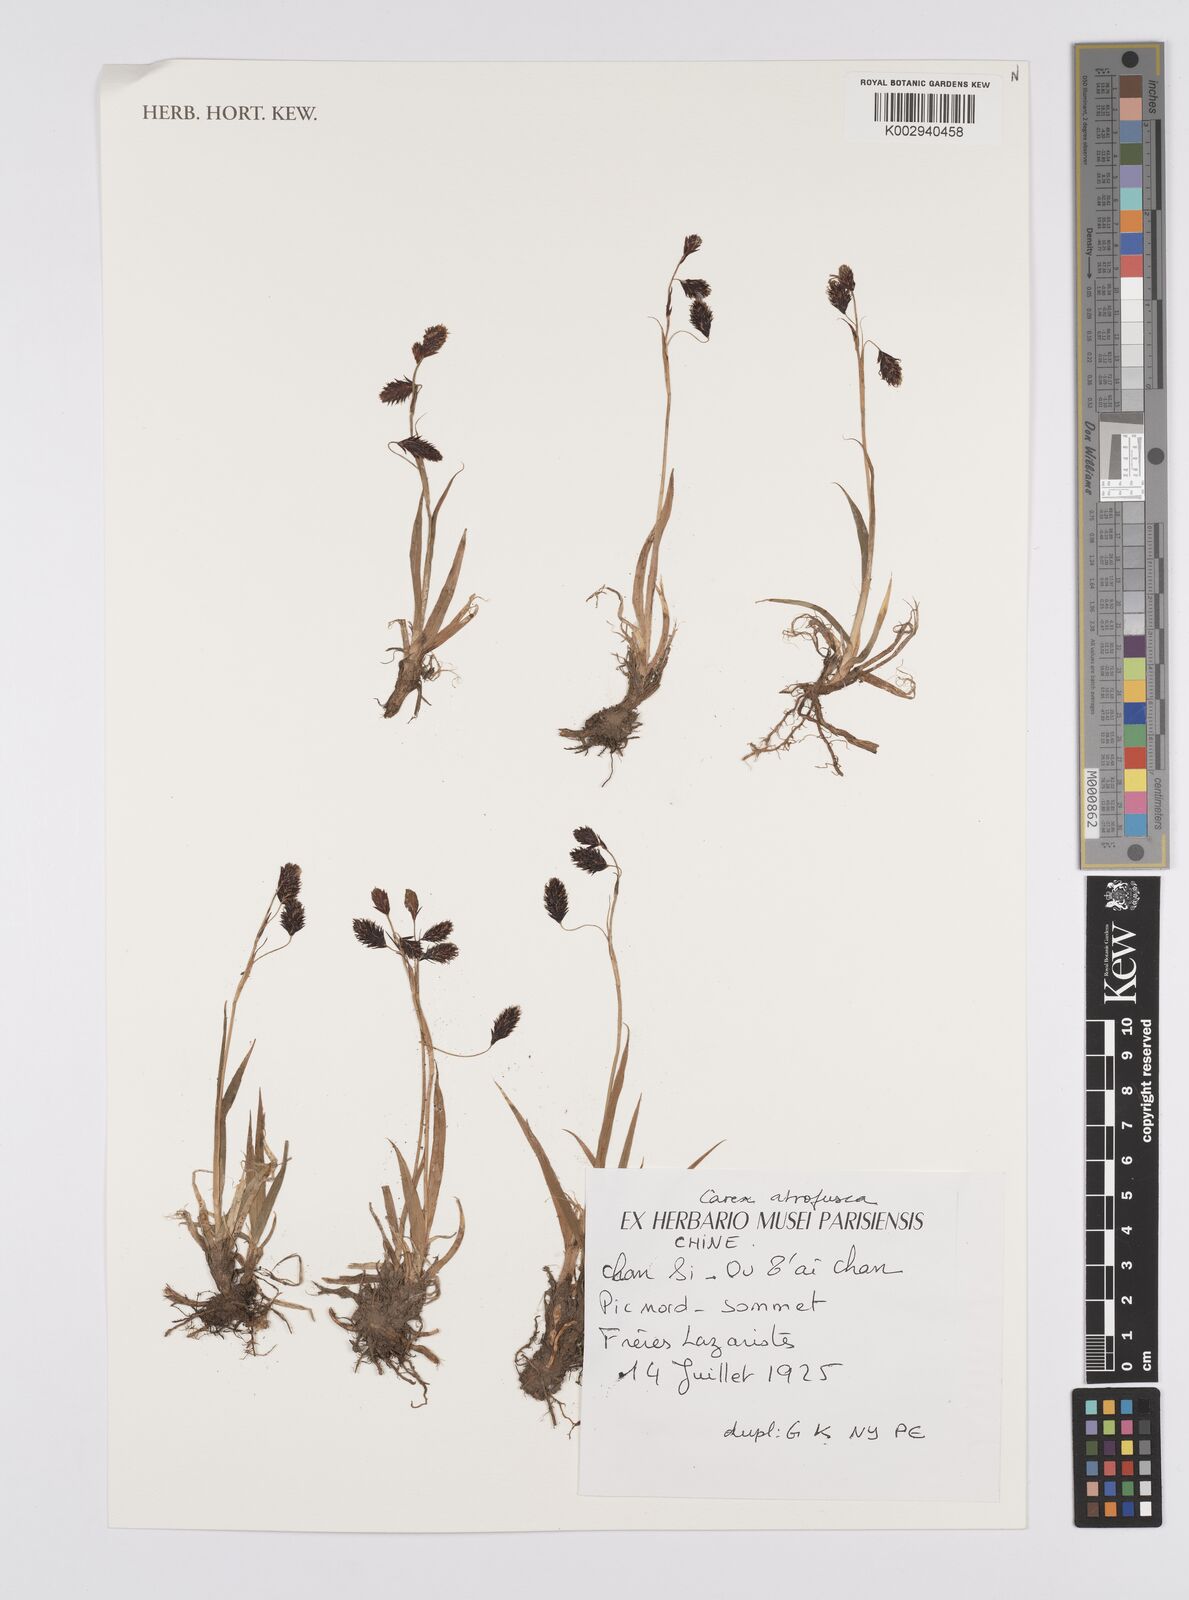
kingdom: Plantae
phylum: Tracheophyta
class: Liliopsida
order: Poales
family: Cyperaceae
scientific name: Cyperaceae
